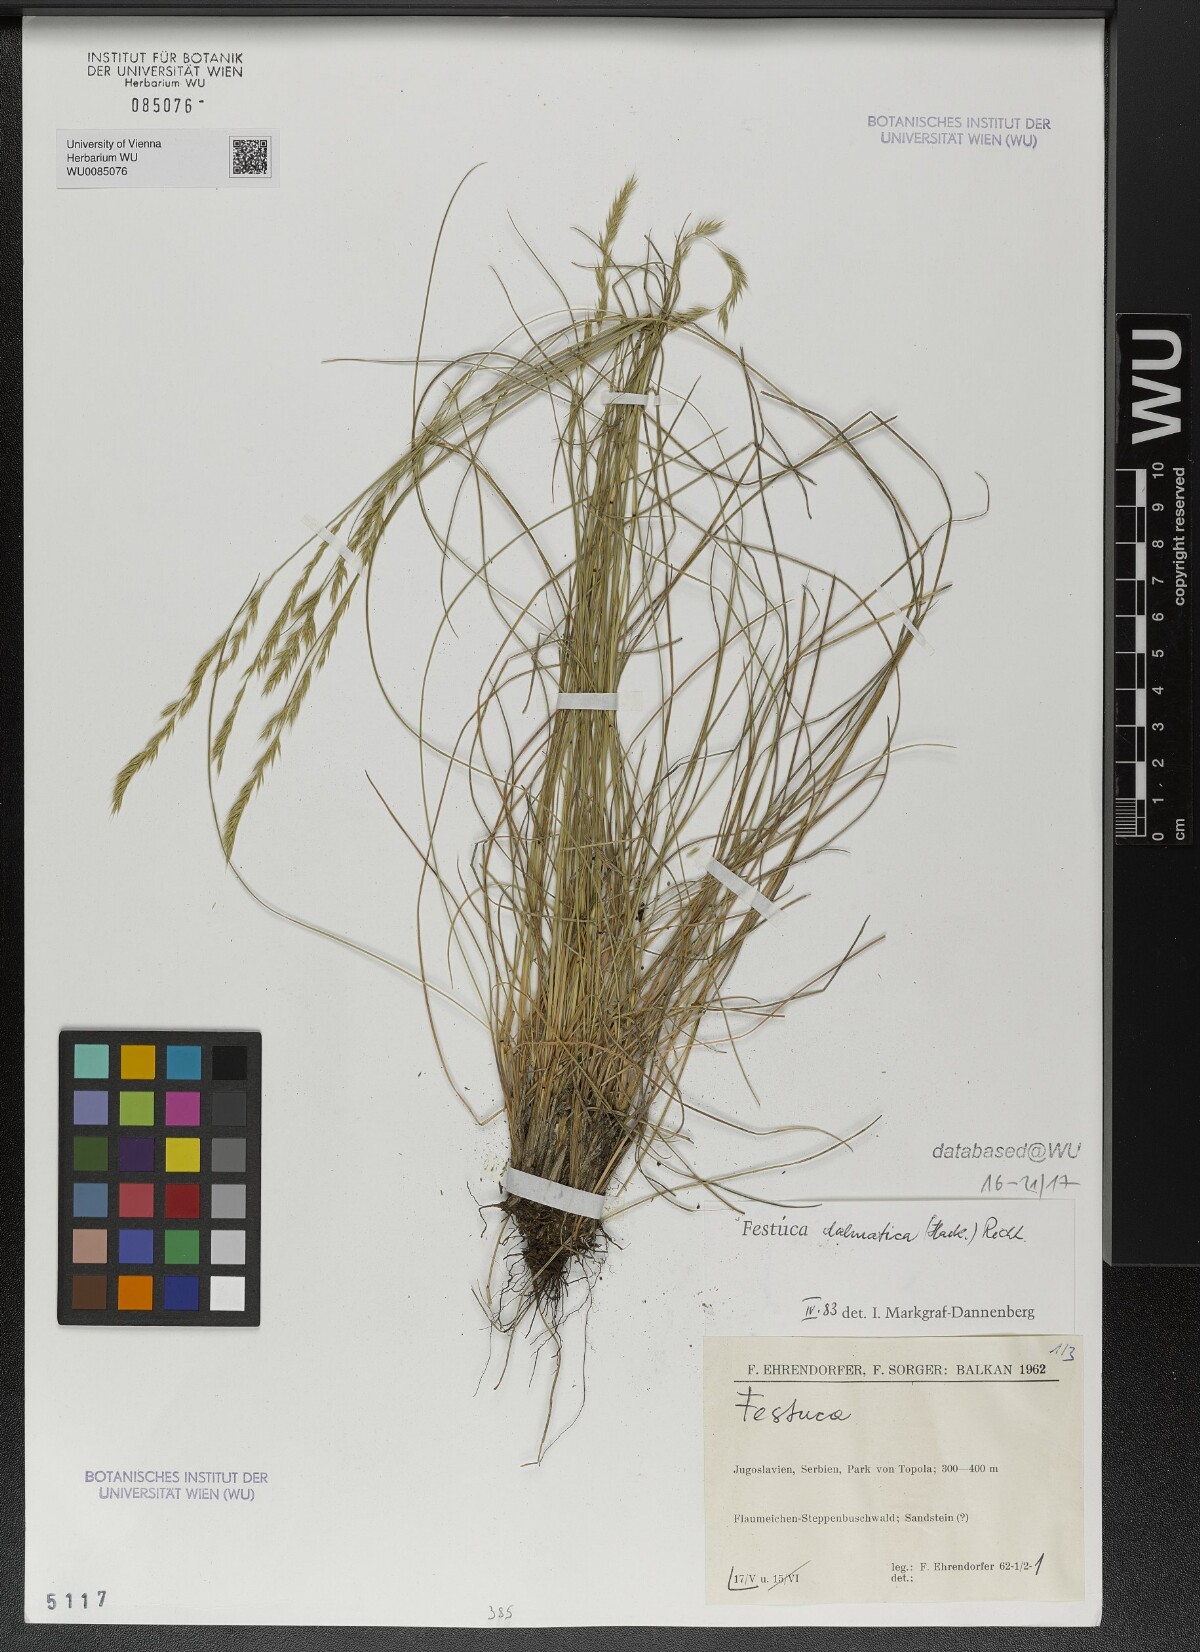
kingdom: Plantae
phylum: Tracheophyta
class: Liliopsida
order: Poales
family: Poaceae
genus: Festuca
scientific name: Festuca dalmatica
